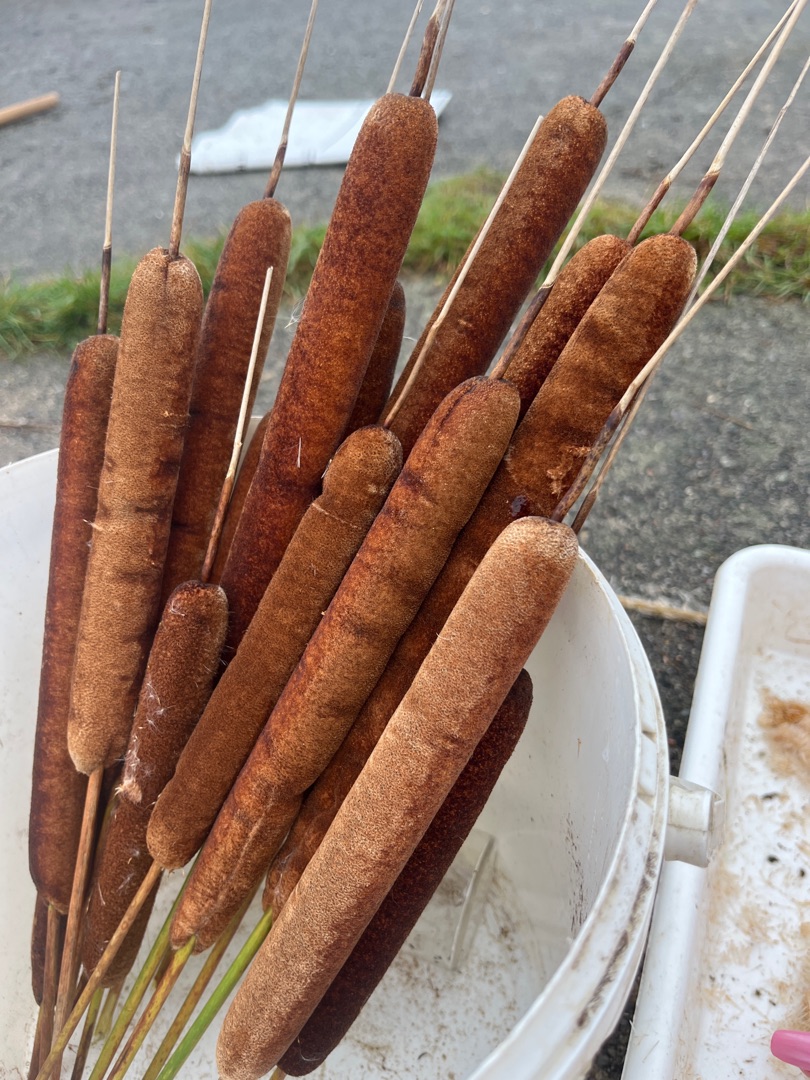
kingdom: Plantae
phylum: Tracheophyta
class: Liliopsida
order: Poales
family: Typhaceae
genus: Typha
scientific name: Typha angustifolia
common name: Smalbladet dunhammer
